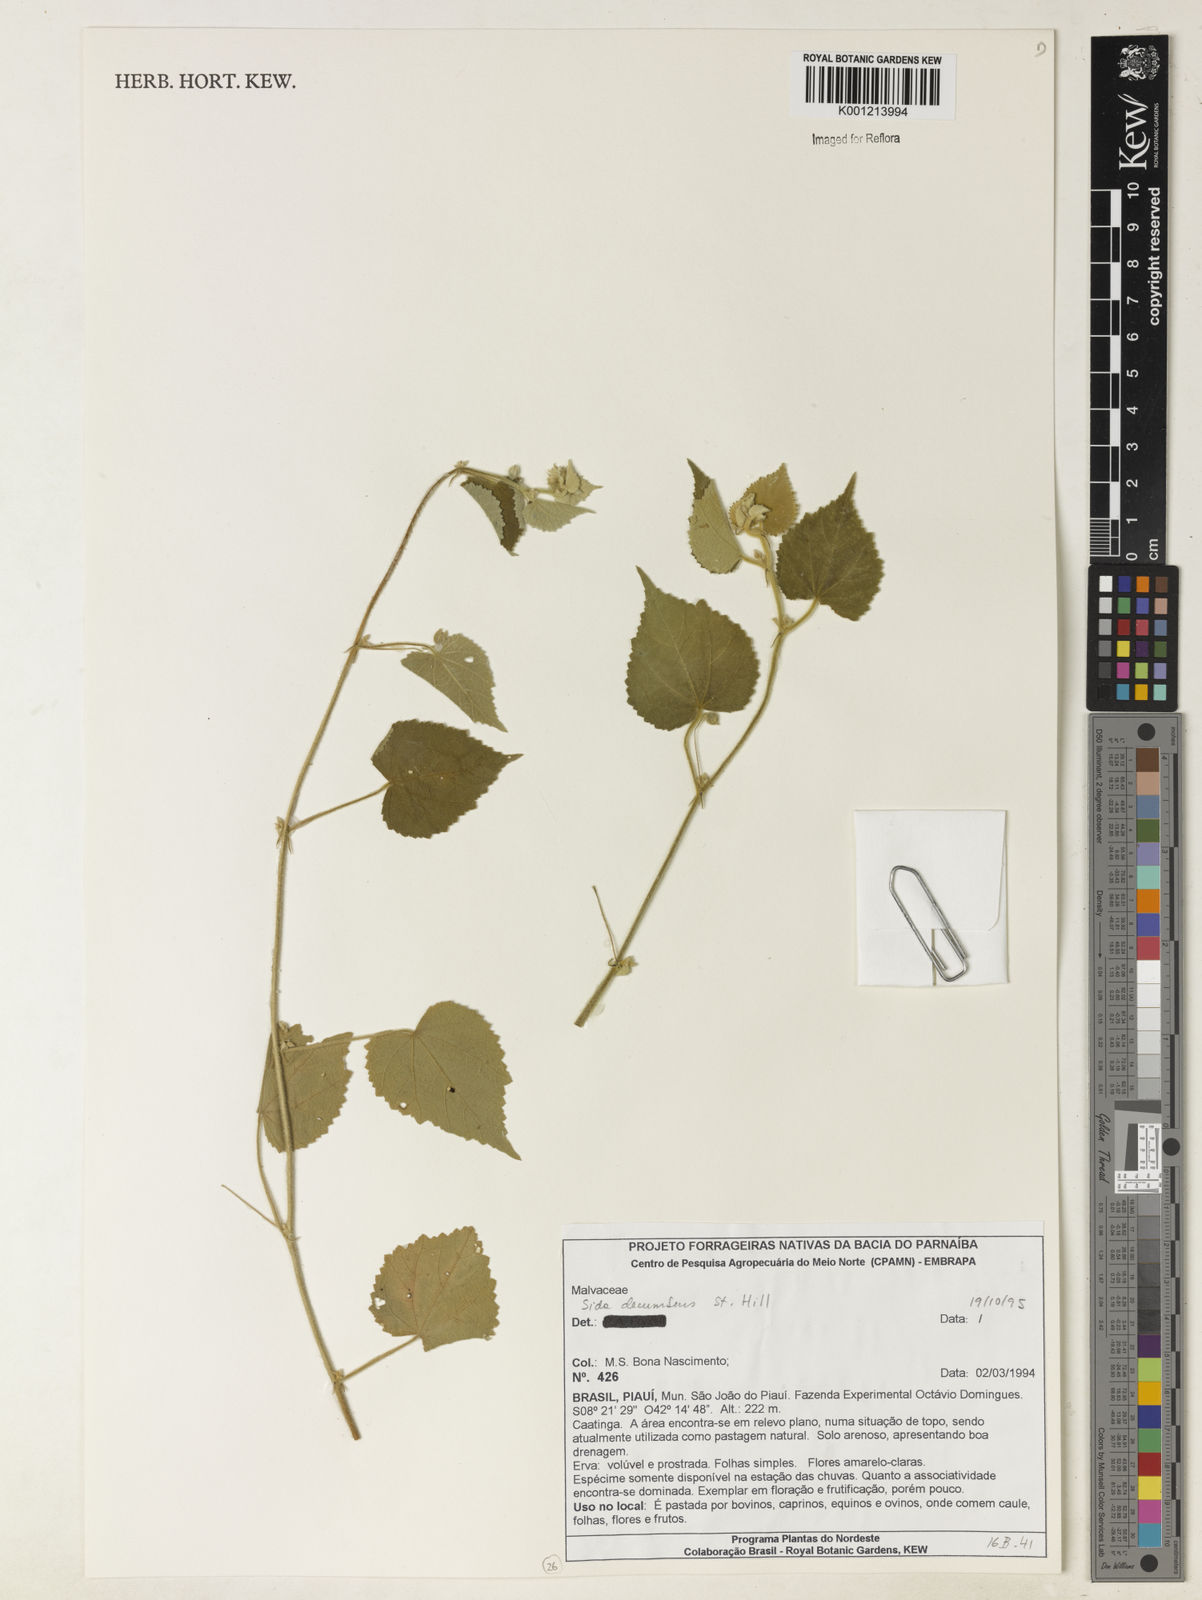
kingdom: Plantae
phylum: Tracheophyta
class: Magnoliopsida
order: Malvales
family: Malvaceae
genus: Sida
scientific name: Sida jussieana
